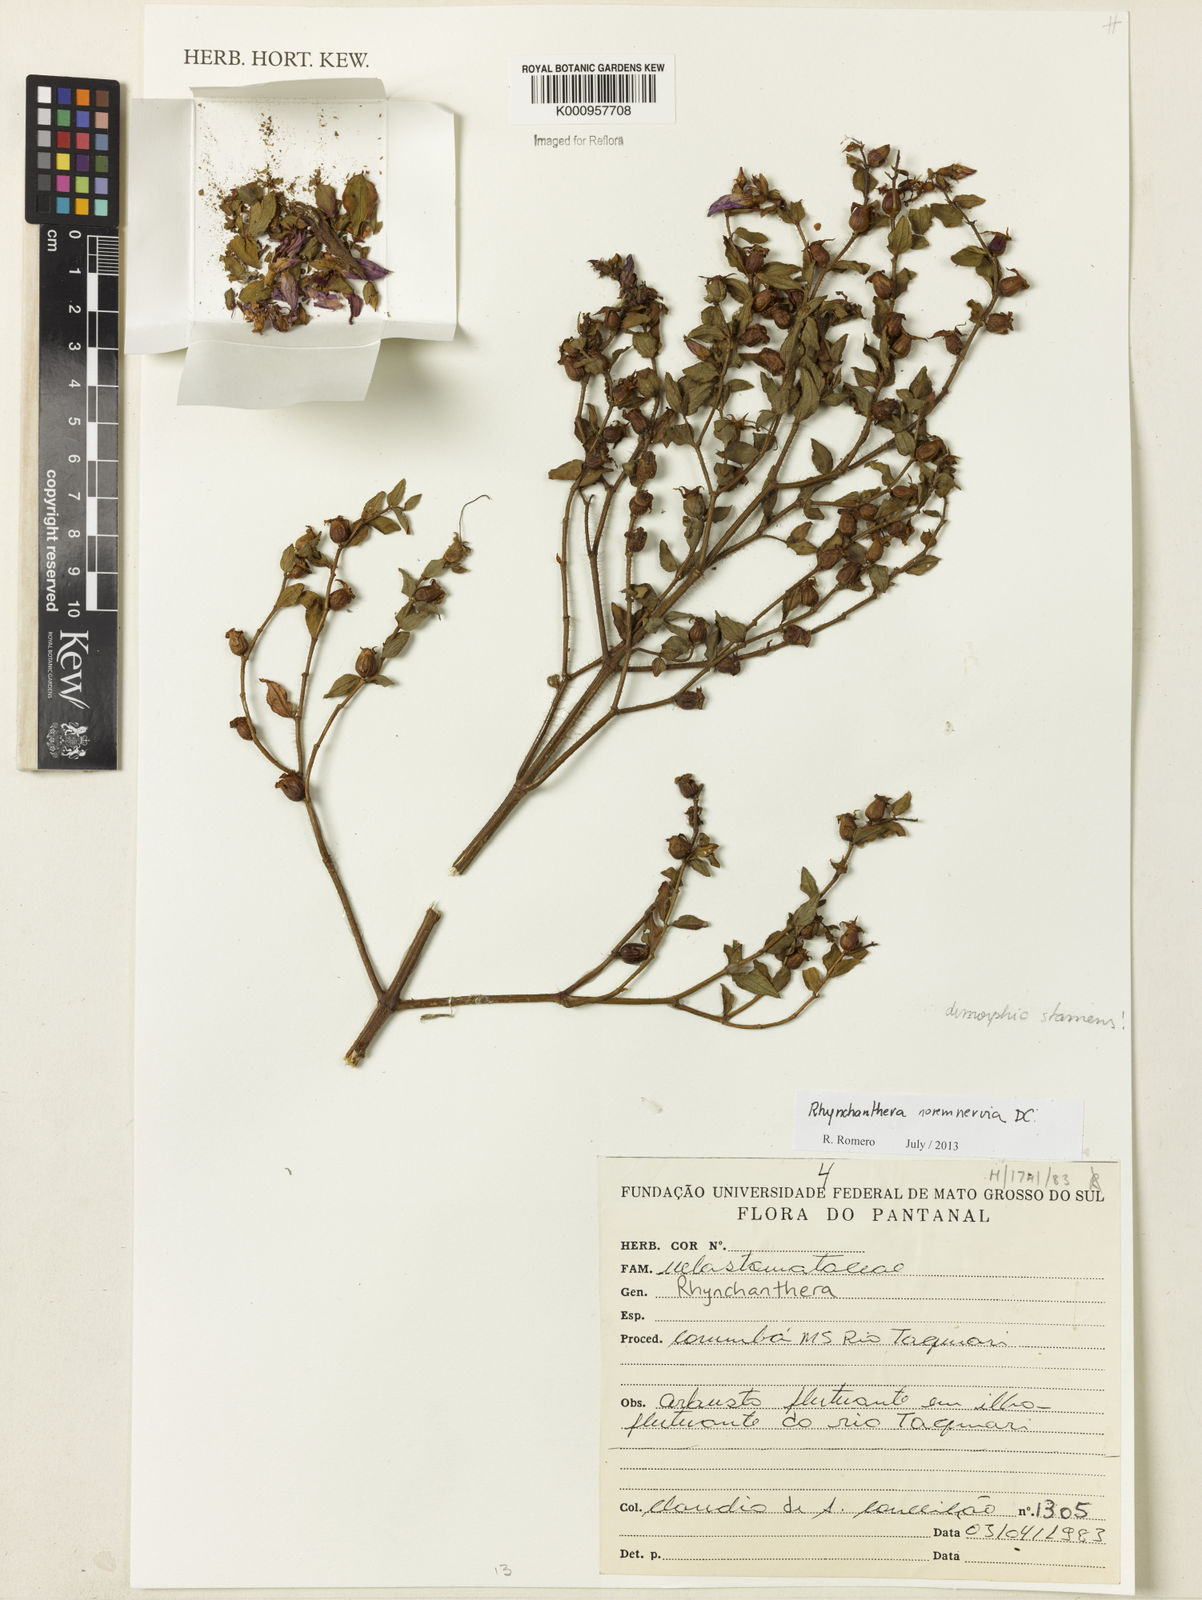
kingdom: Plantae
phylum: Tracheophyta
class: Magnoliopsida
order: Myrtales
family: Melastomataceae
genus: Rhynchanthera
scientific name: Rhynchanthera novemnervia
